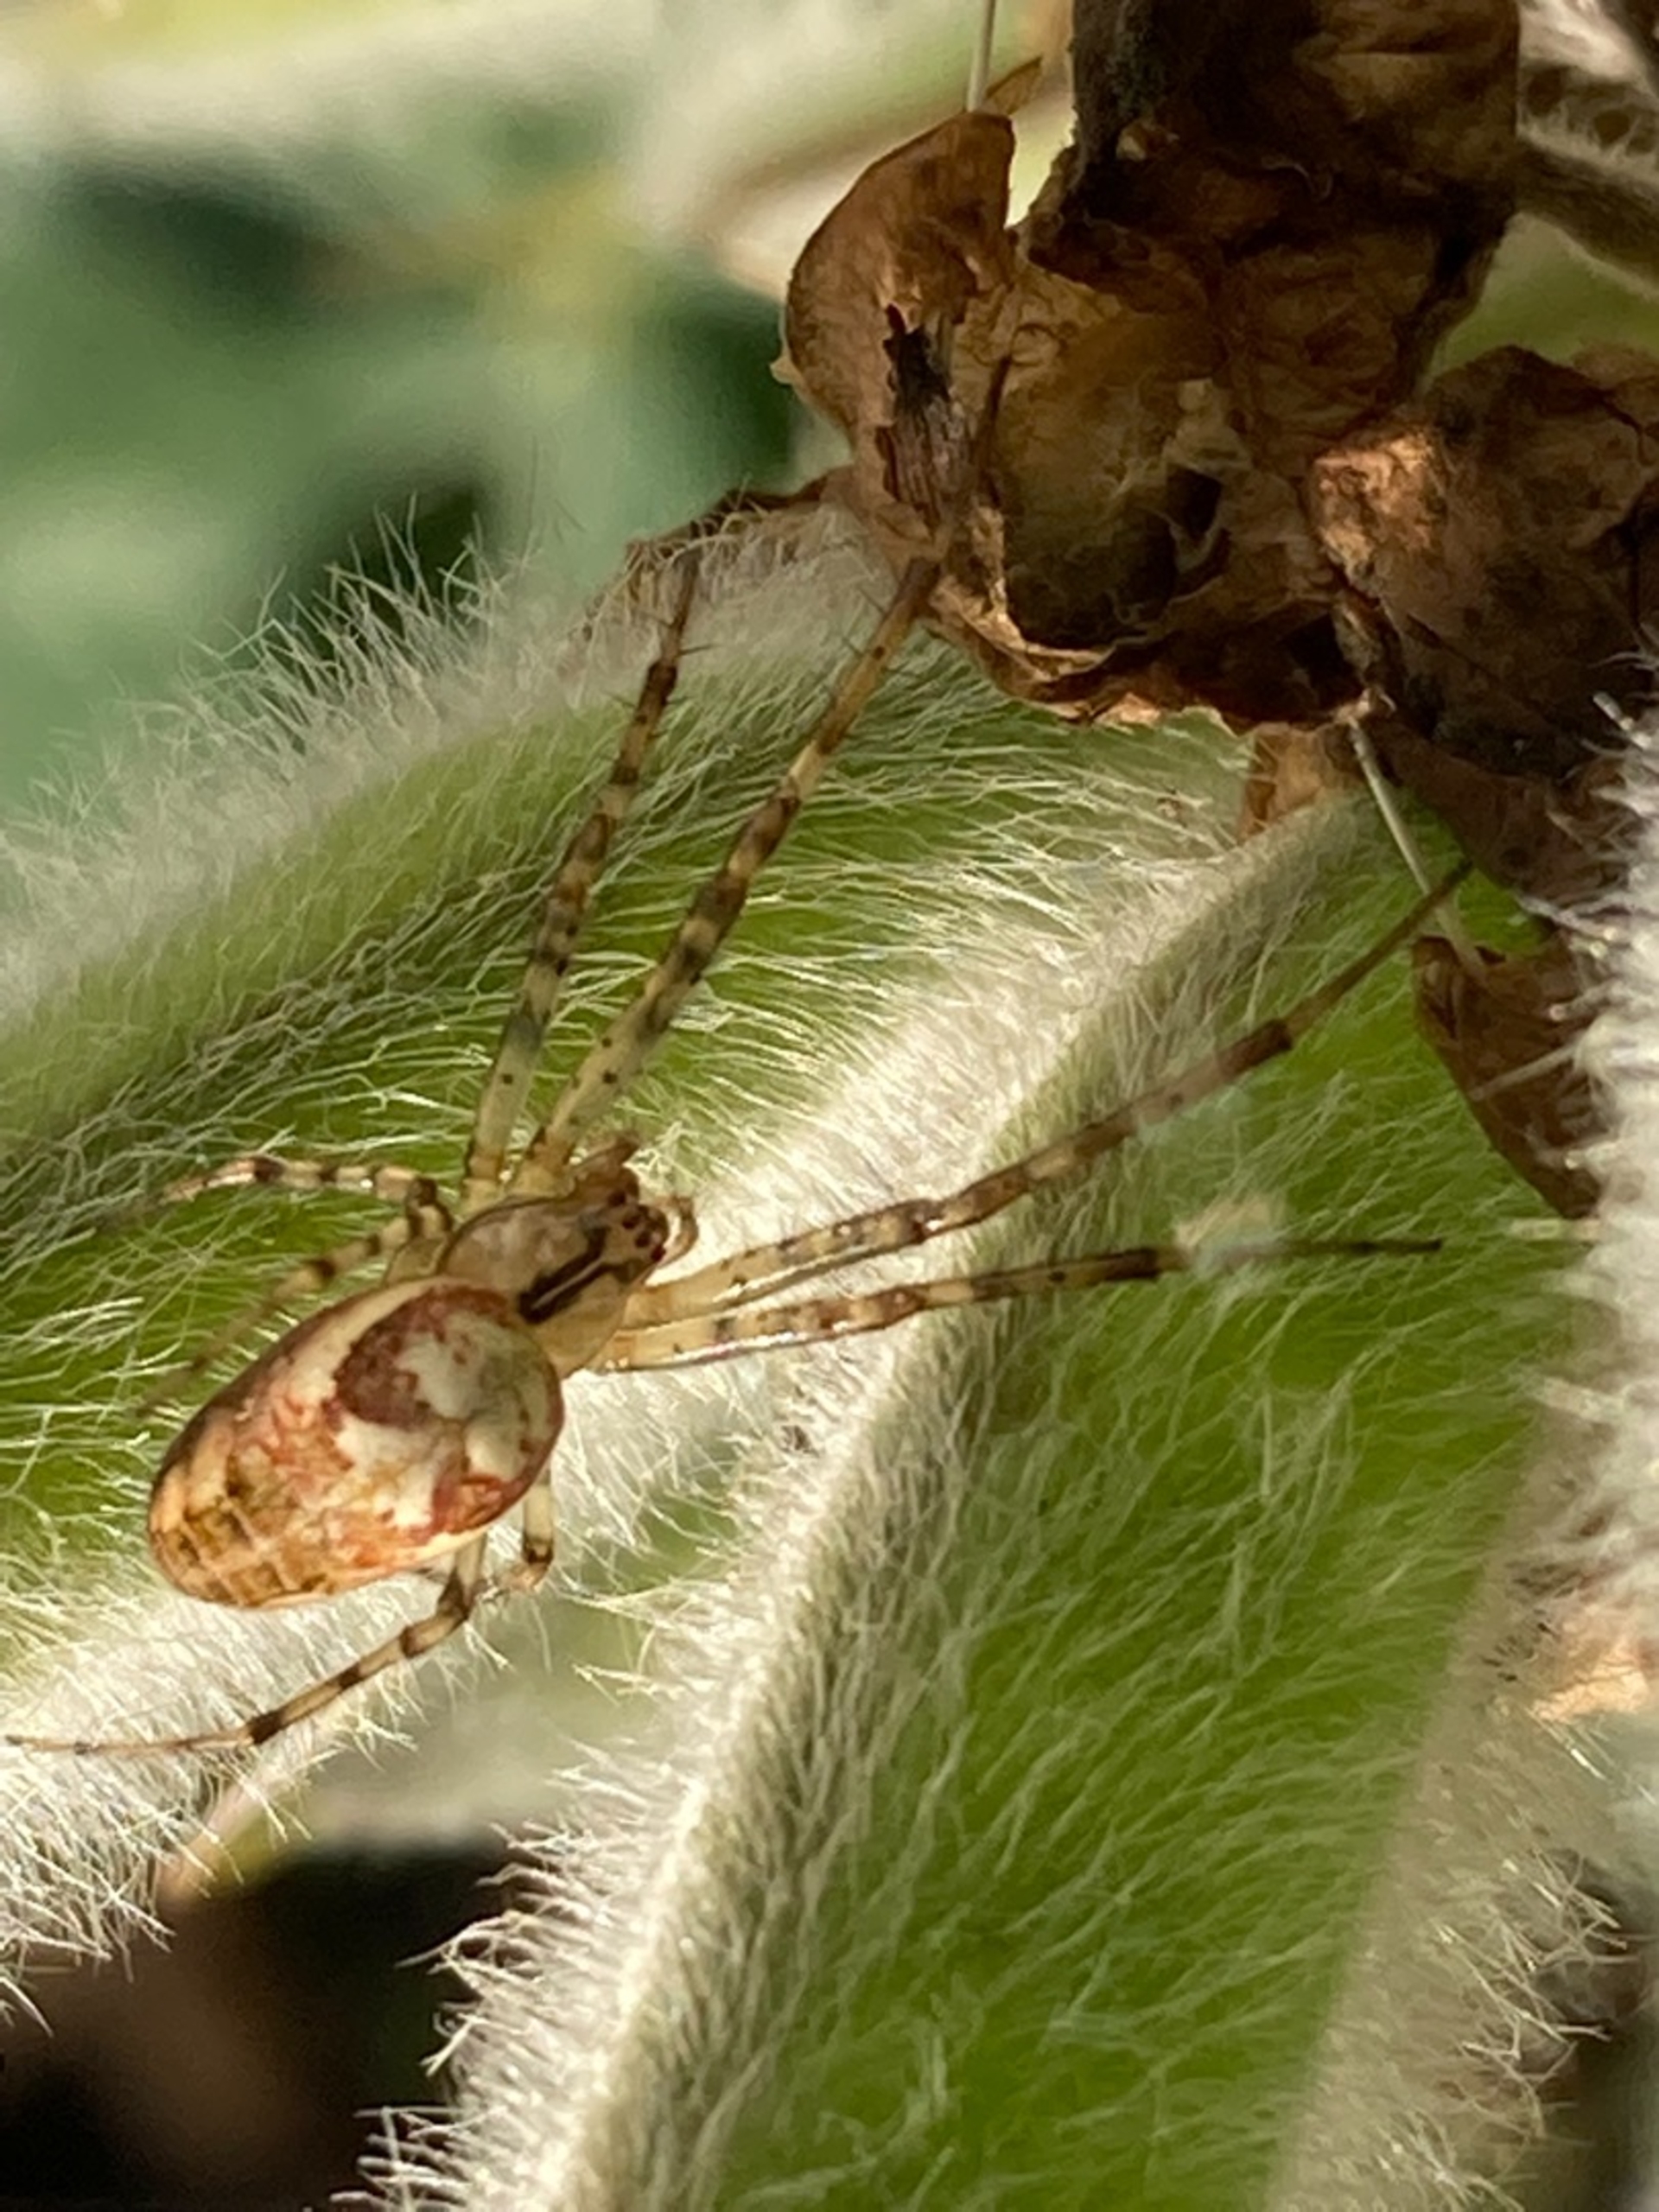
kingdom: Animalia
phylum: Arthropoda
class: Arachnida
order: Araneae
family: Tetragnathidae
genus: Metellina
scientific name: Metellina
